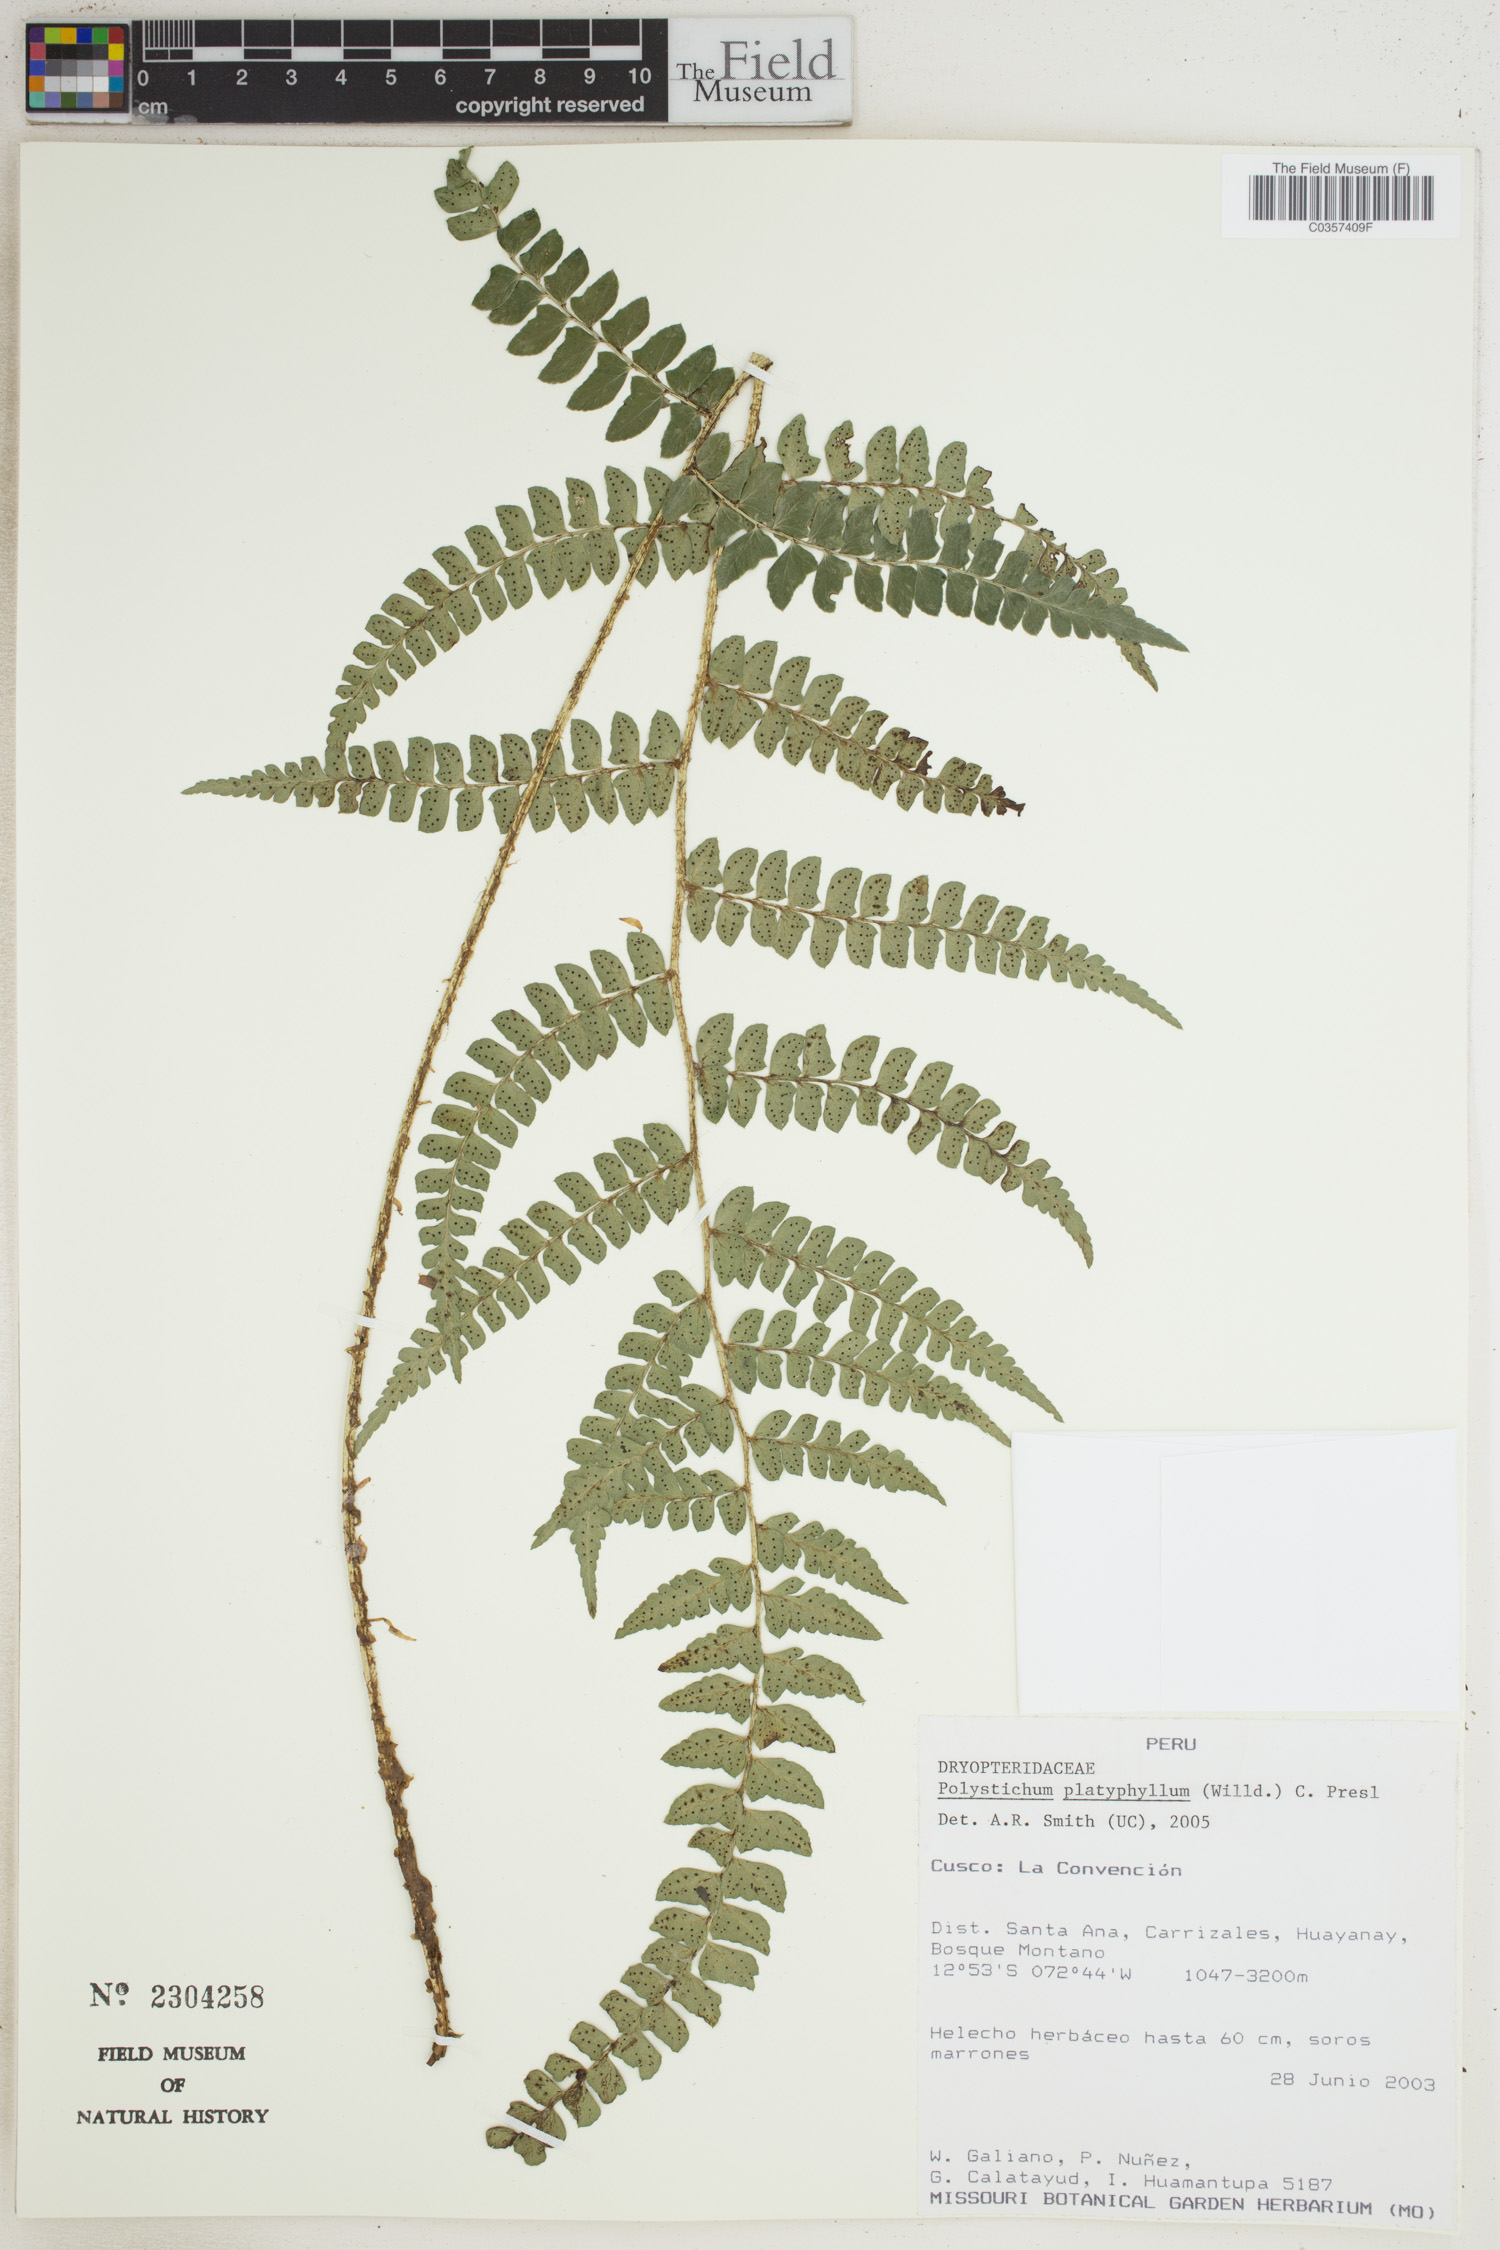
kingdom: Plantae
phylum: Tracheophyta
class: Polypodiopsida
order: Polypodiales
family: Dryopteridaceae
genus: Polystichum
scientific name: Polystichum platyphyllum
